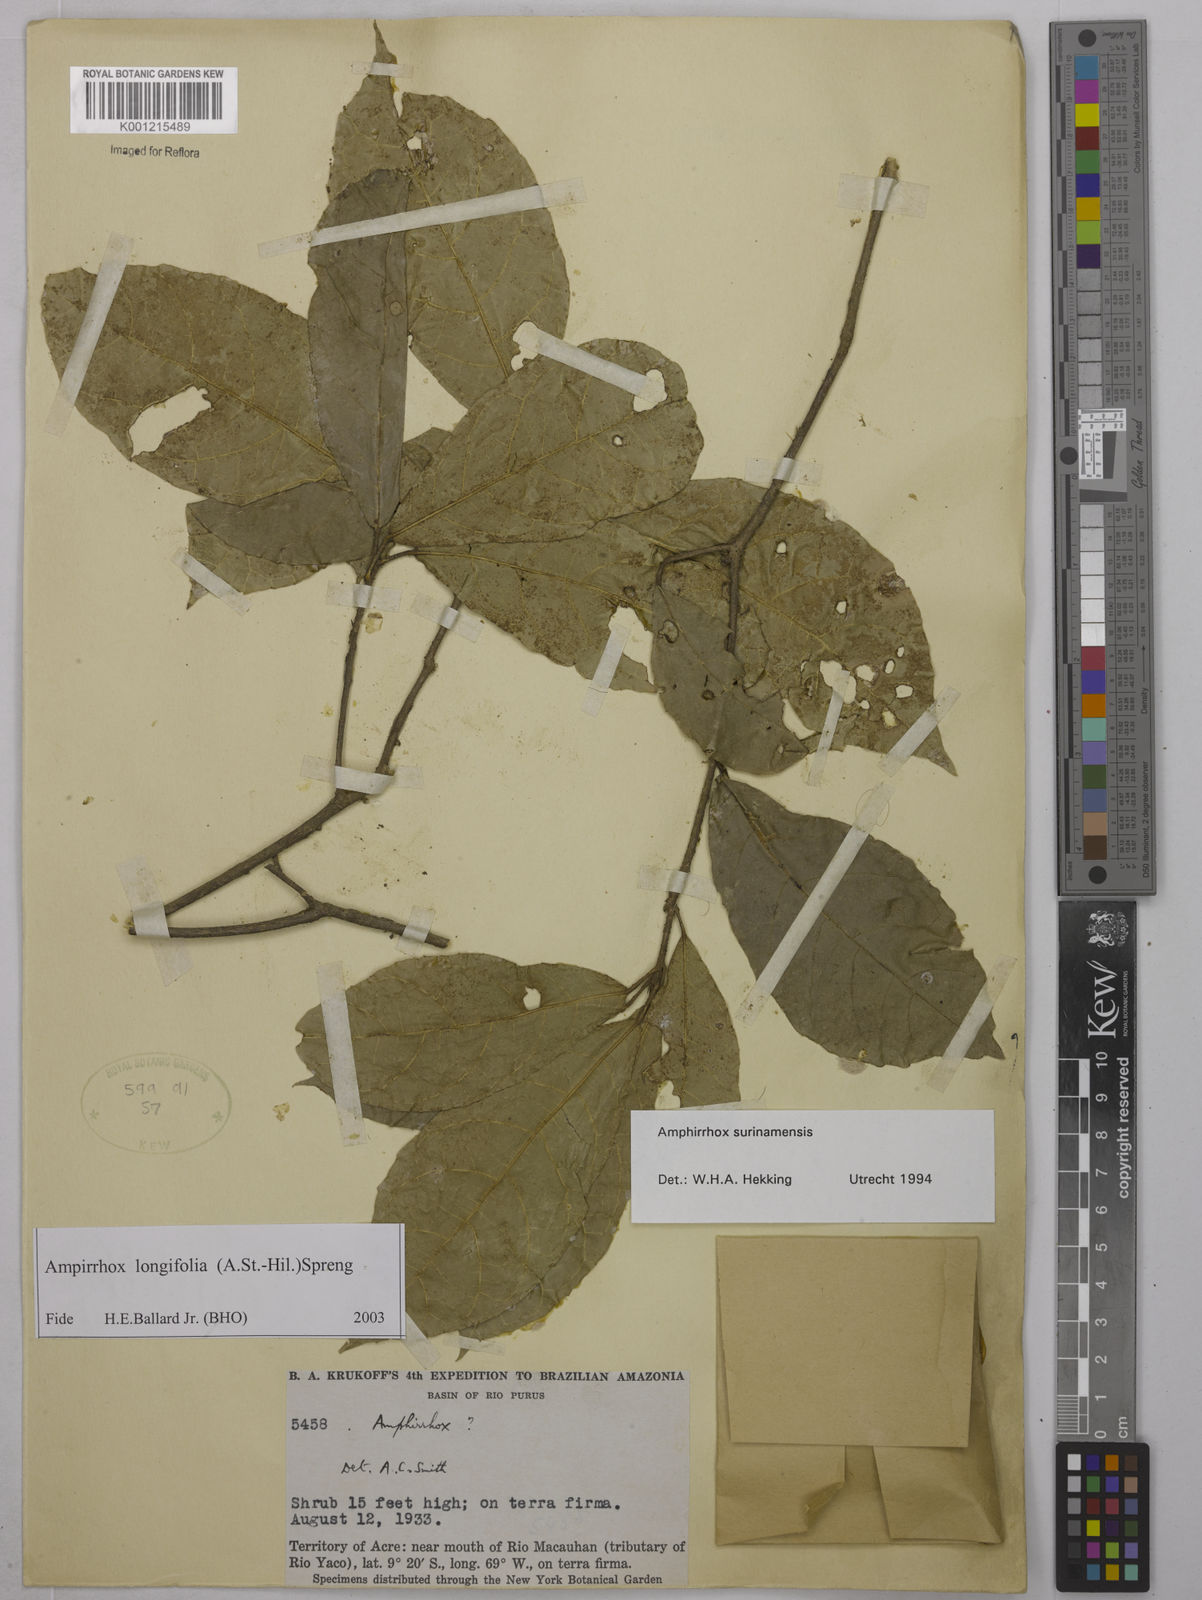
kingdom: Plantae
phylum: Tracheophyta
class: Magnoliopsida
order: Malpighiales
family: Violaceae
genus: Amphirrhox
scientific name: Amphirrhox longifolia
